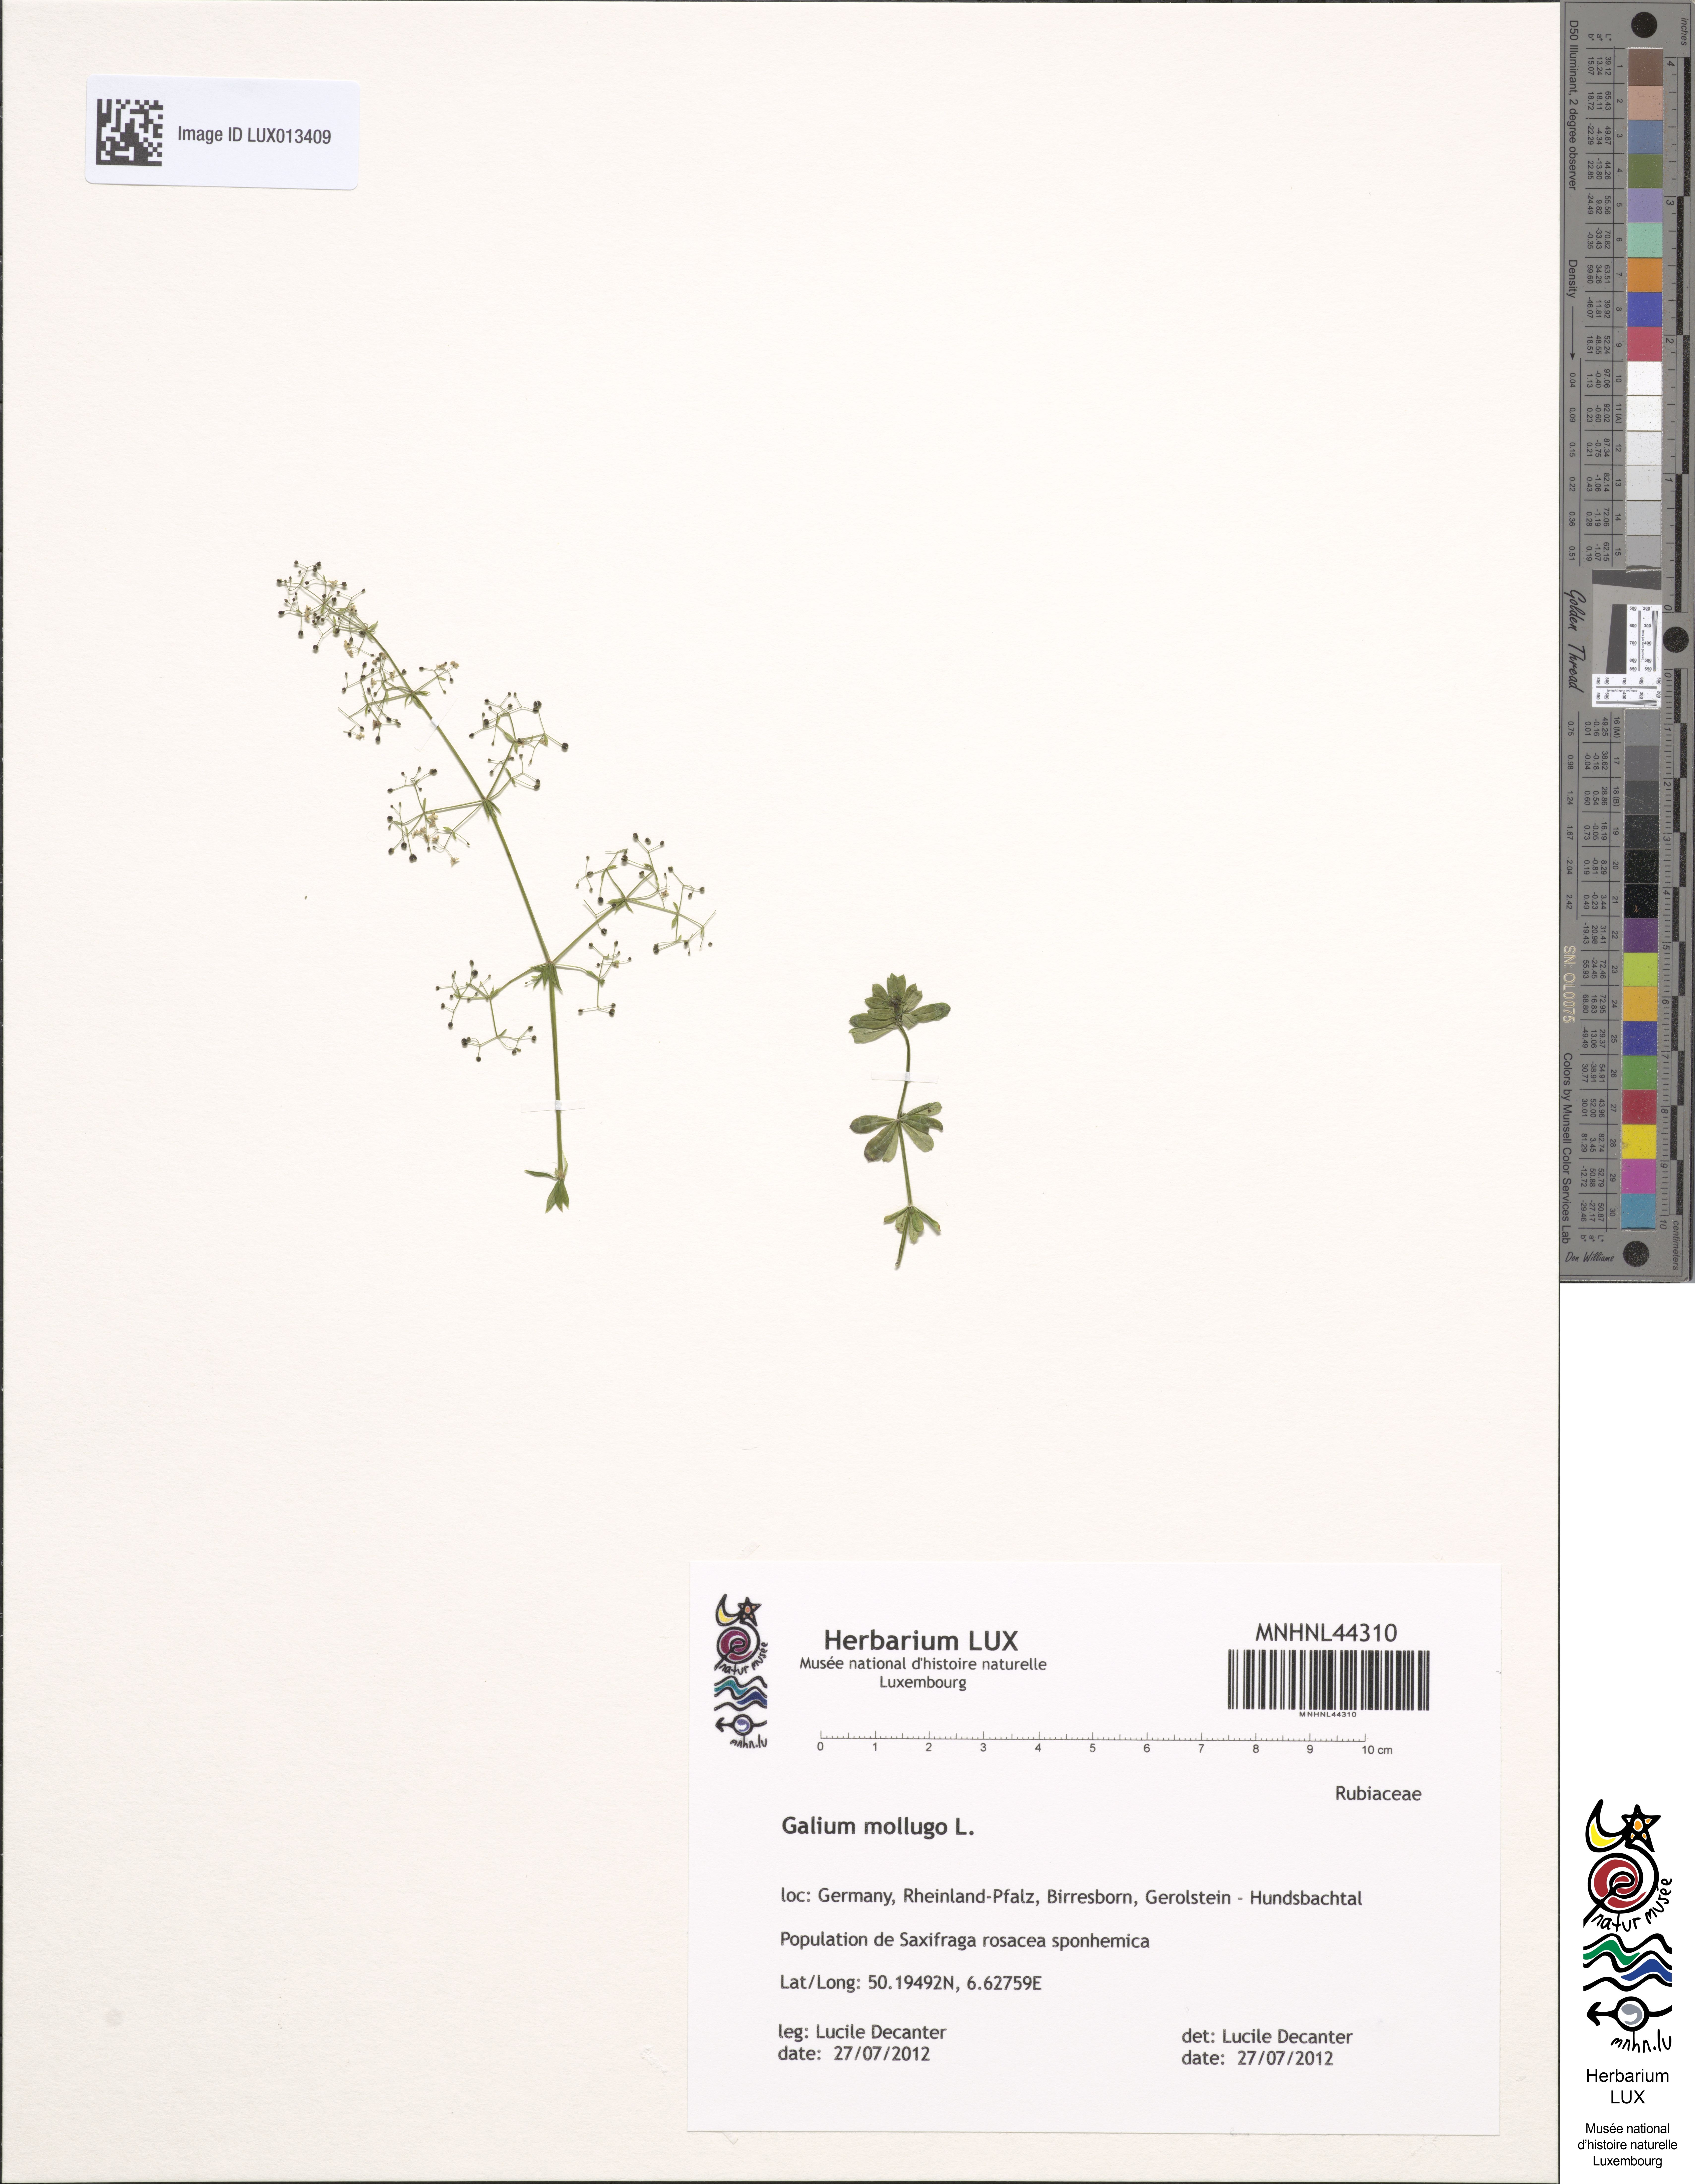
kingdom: Plantae
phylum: Tracheophyta
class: Magnoliopsida
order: Gentianales
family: Rubiaceae
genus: Galium
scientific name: Galium mollugo
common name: Hedge bedstraw
